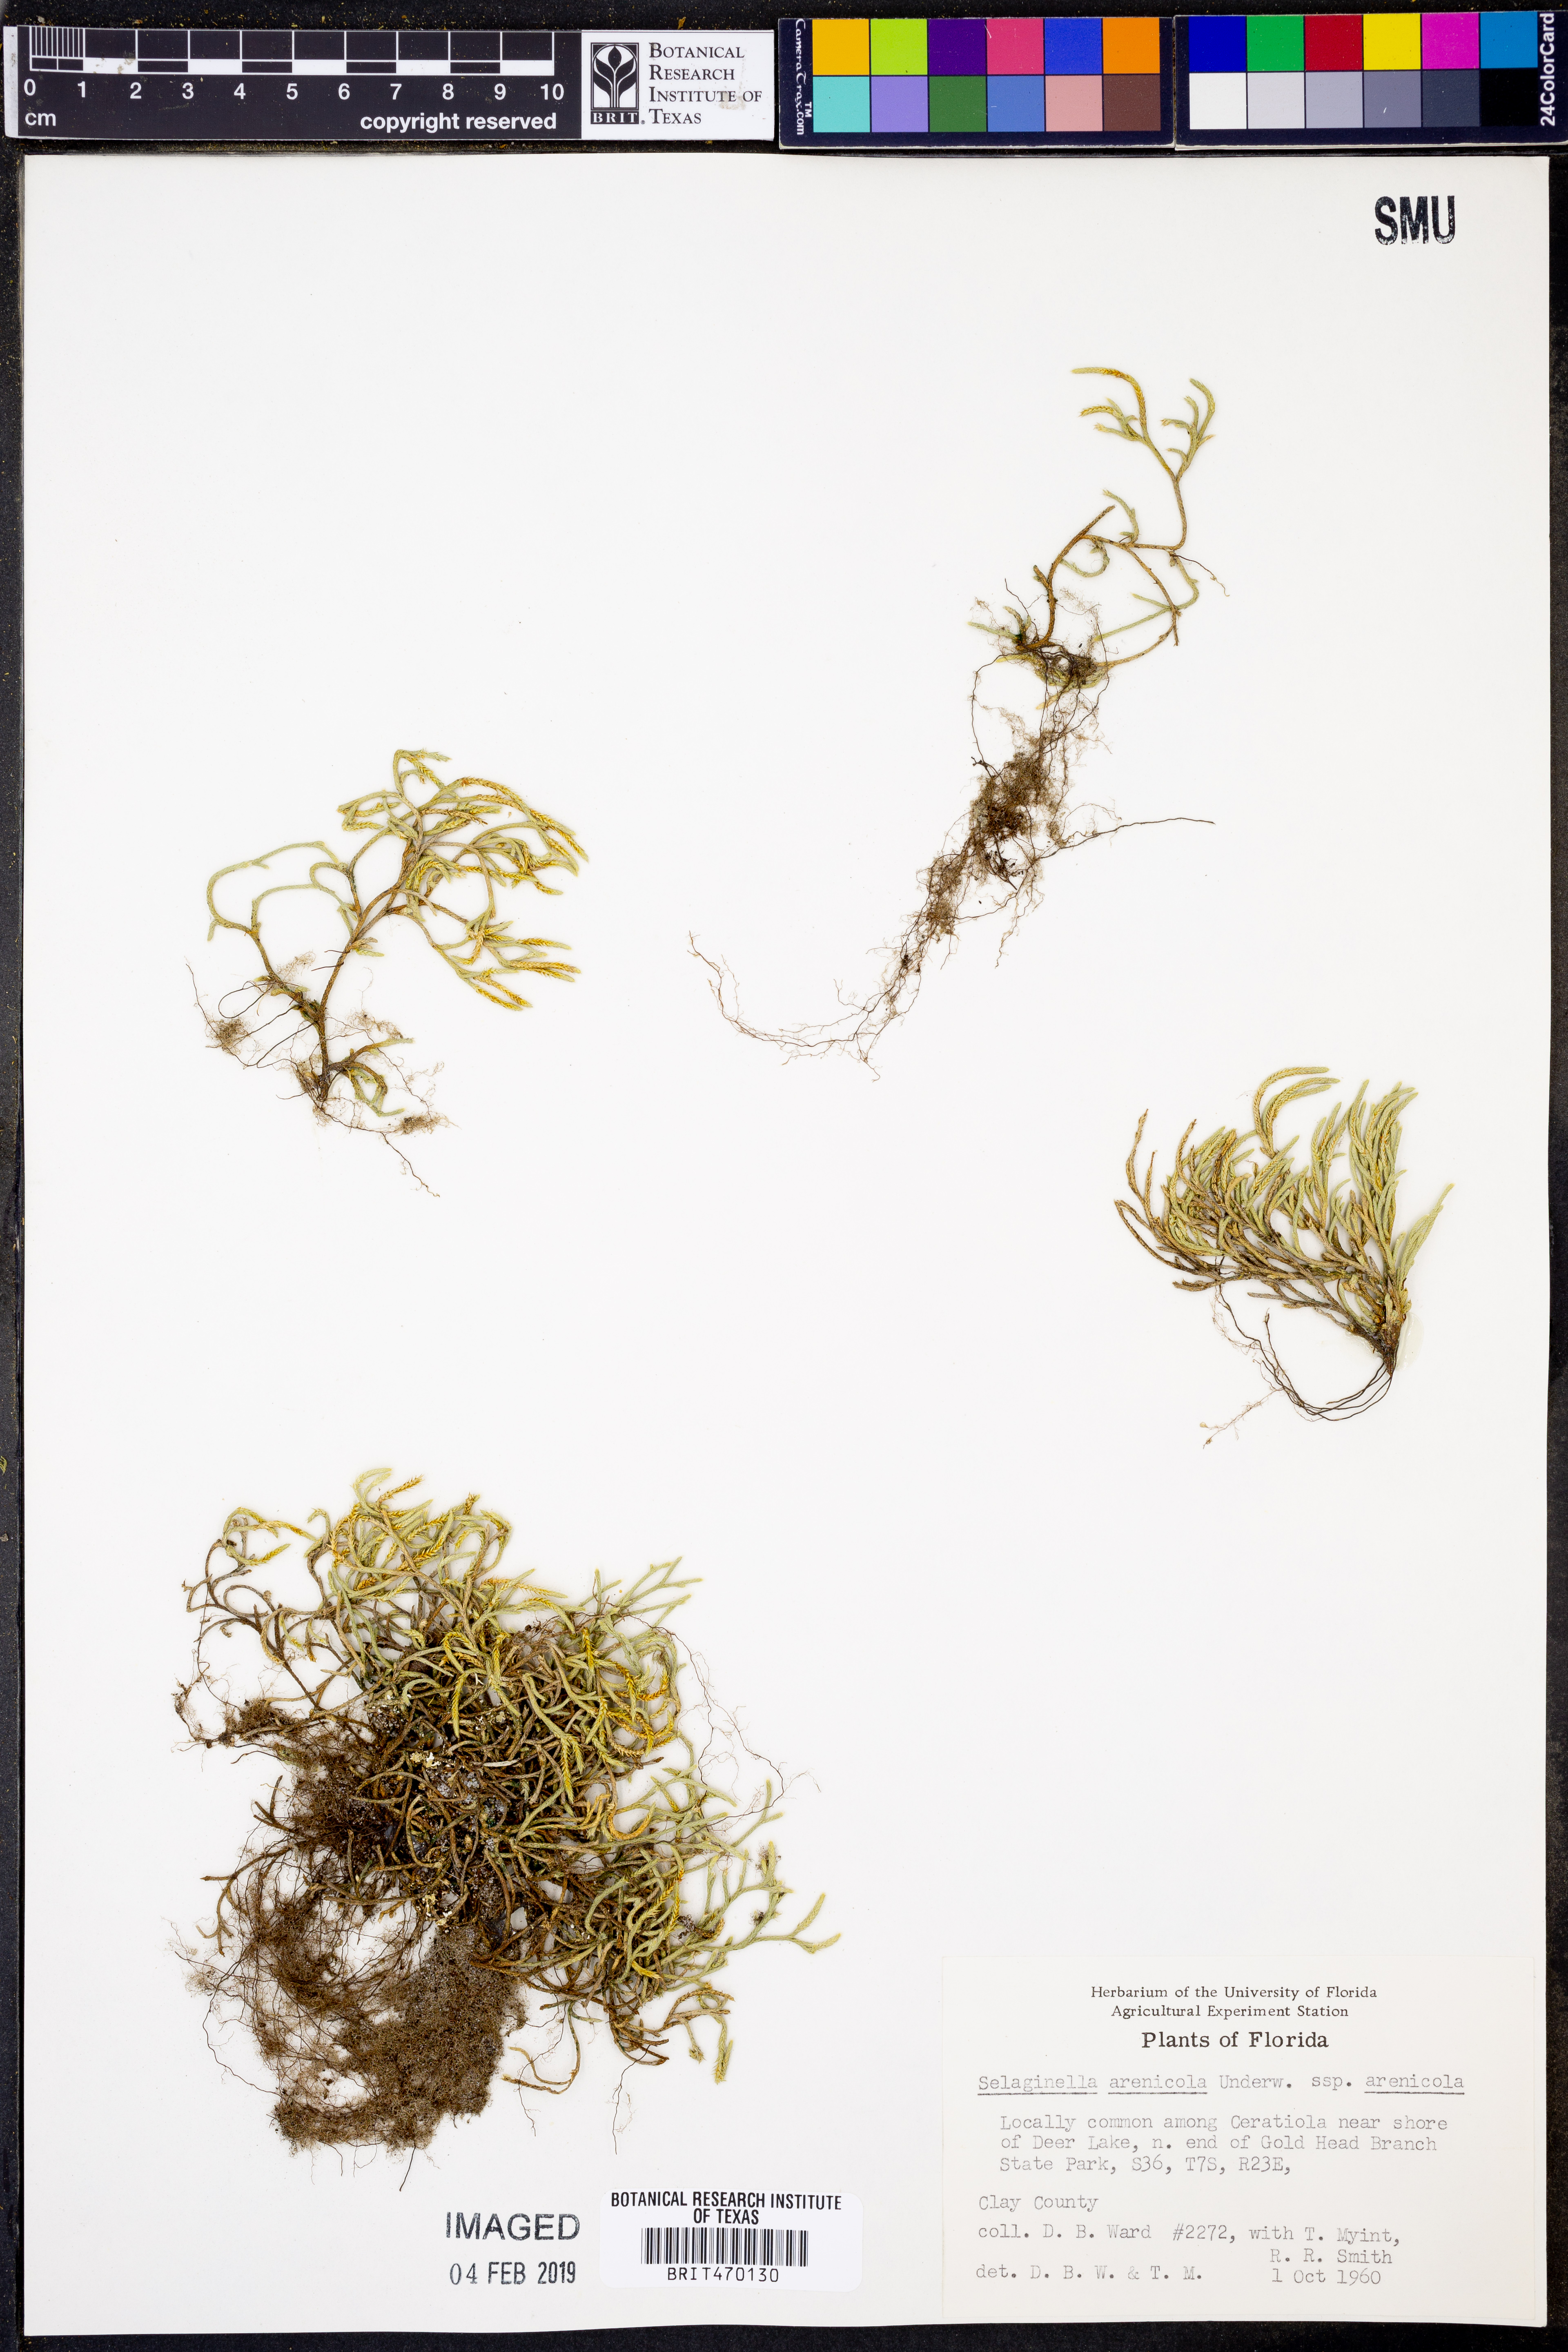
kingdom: Plantae
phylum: Tracheophyta
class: Lycopodiopsida
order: Selaginellales
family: Selaginellaceae
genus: Selaginella
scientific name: Selaginella arenicola
